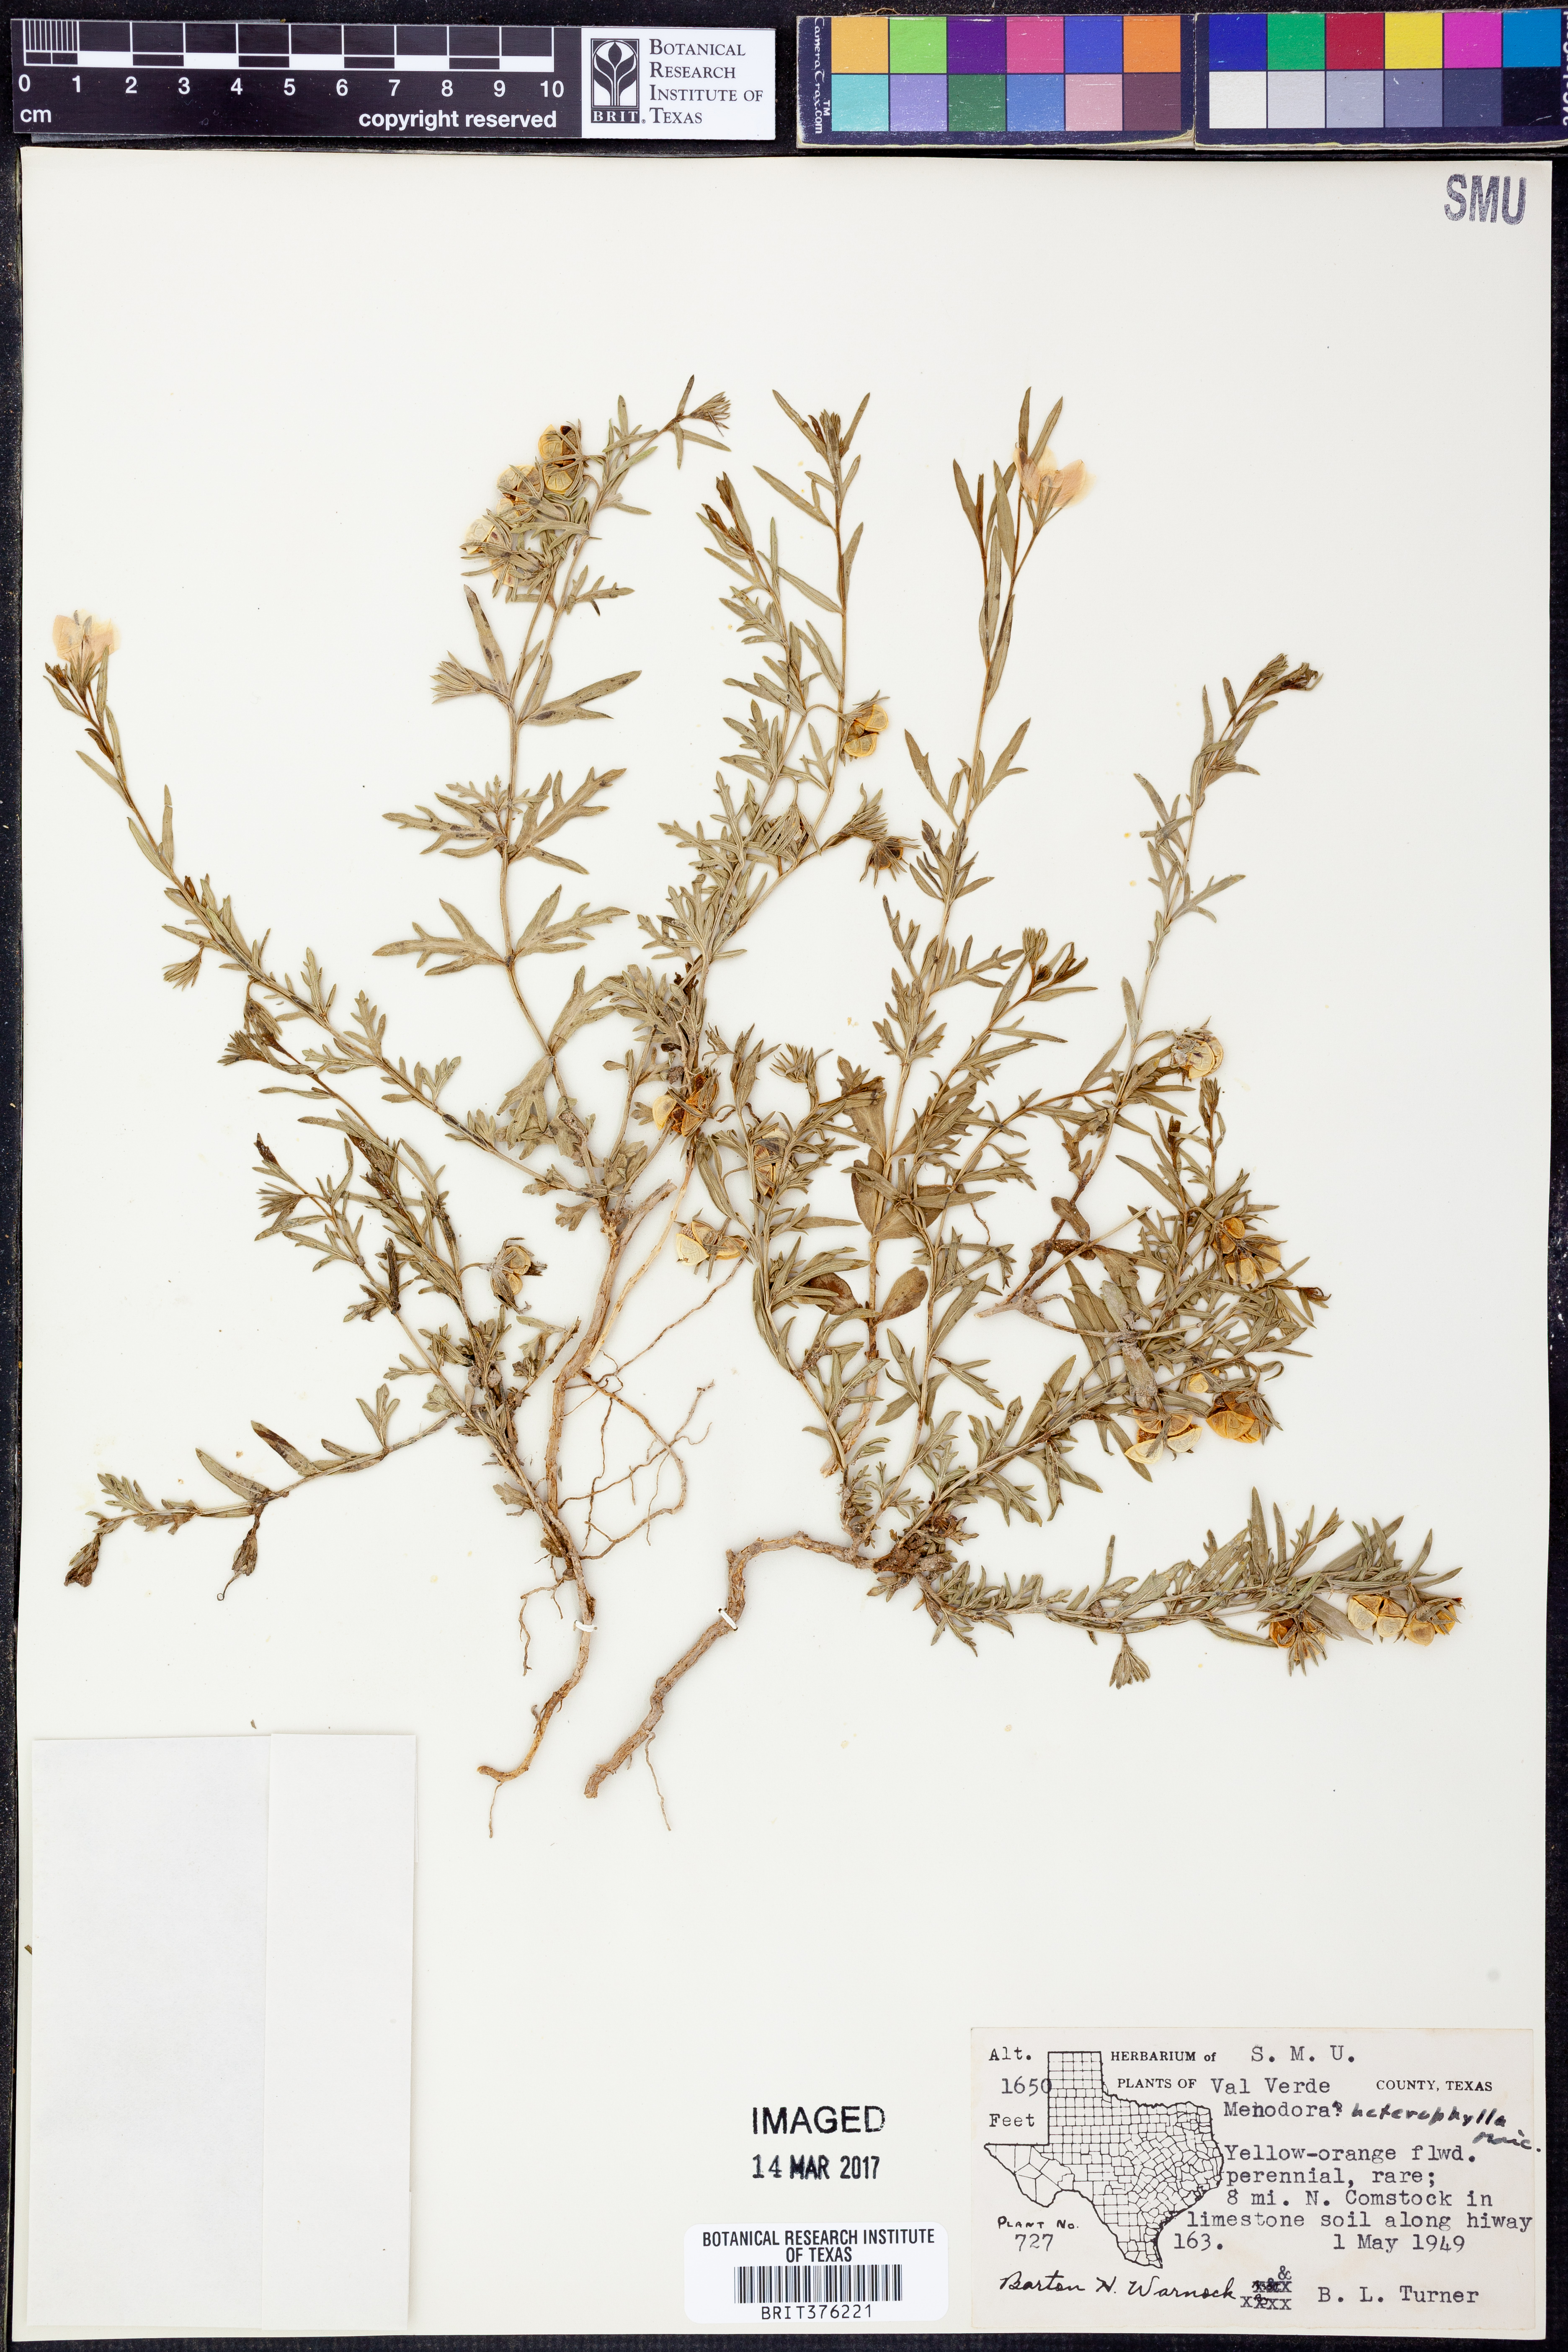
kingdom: Plantae
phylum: Tracheophyta
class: Magnoliopsida
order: Lamiales
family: Oleaceae
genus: Menodora
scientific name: Menodora heterophylla
